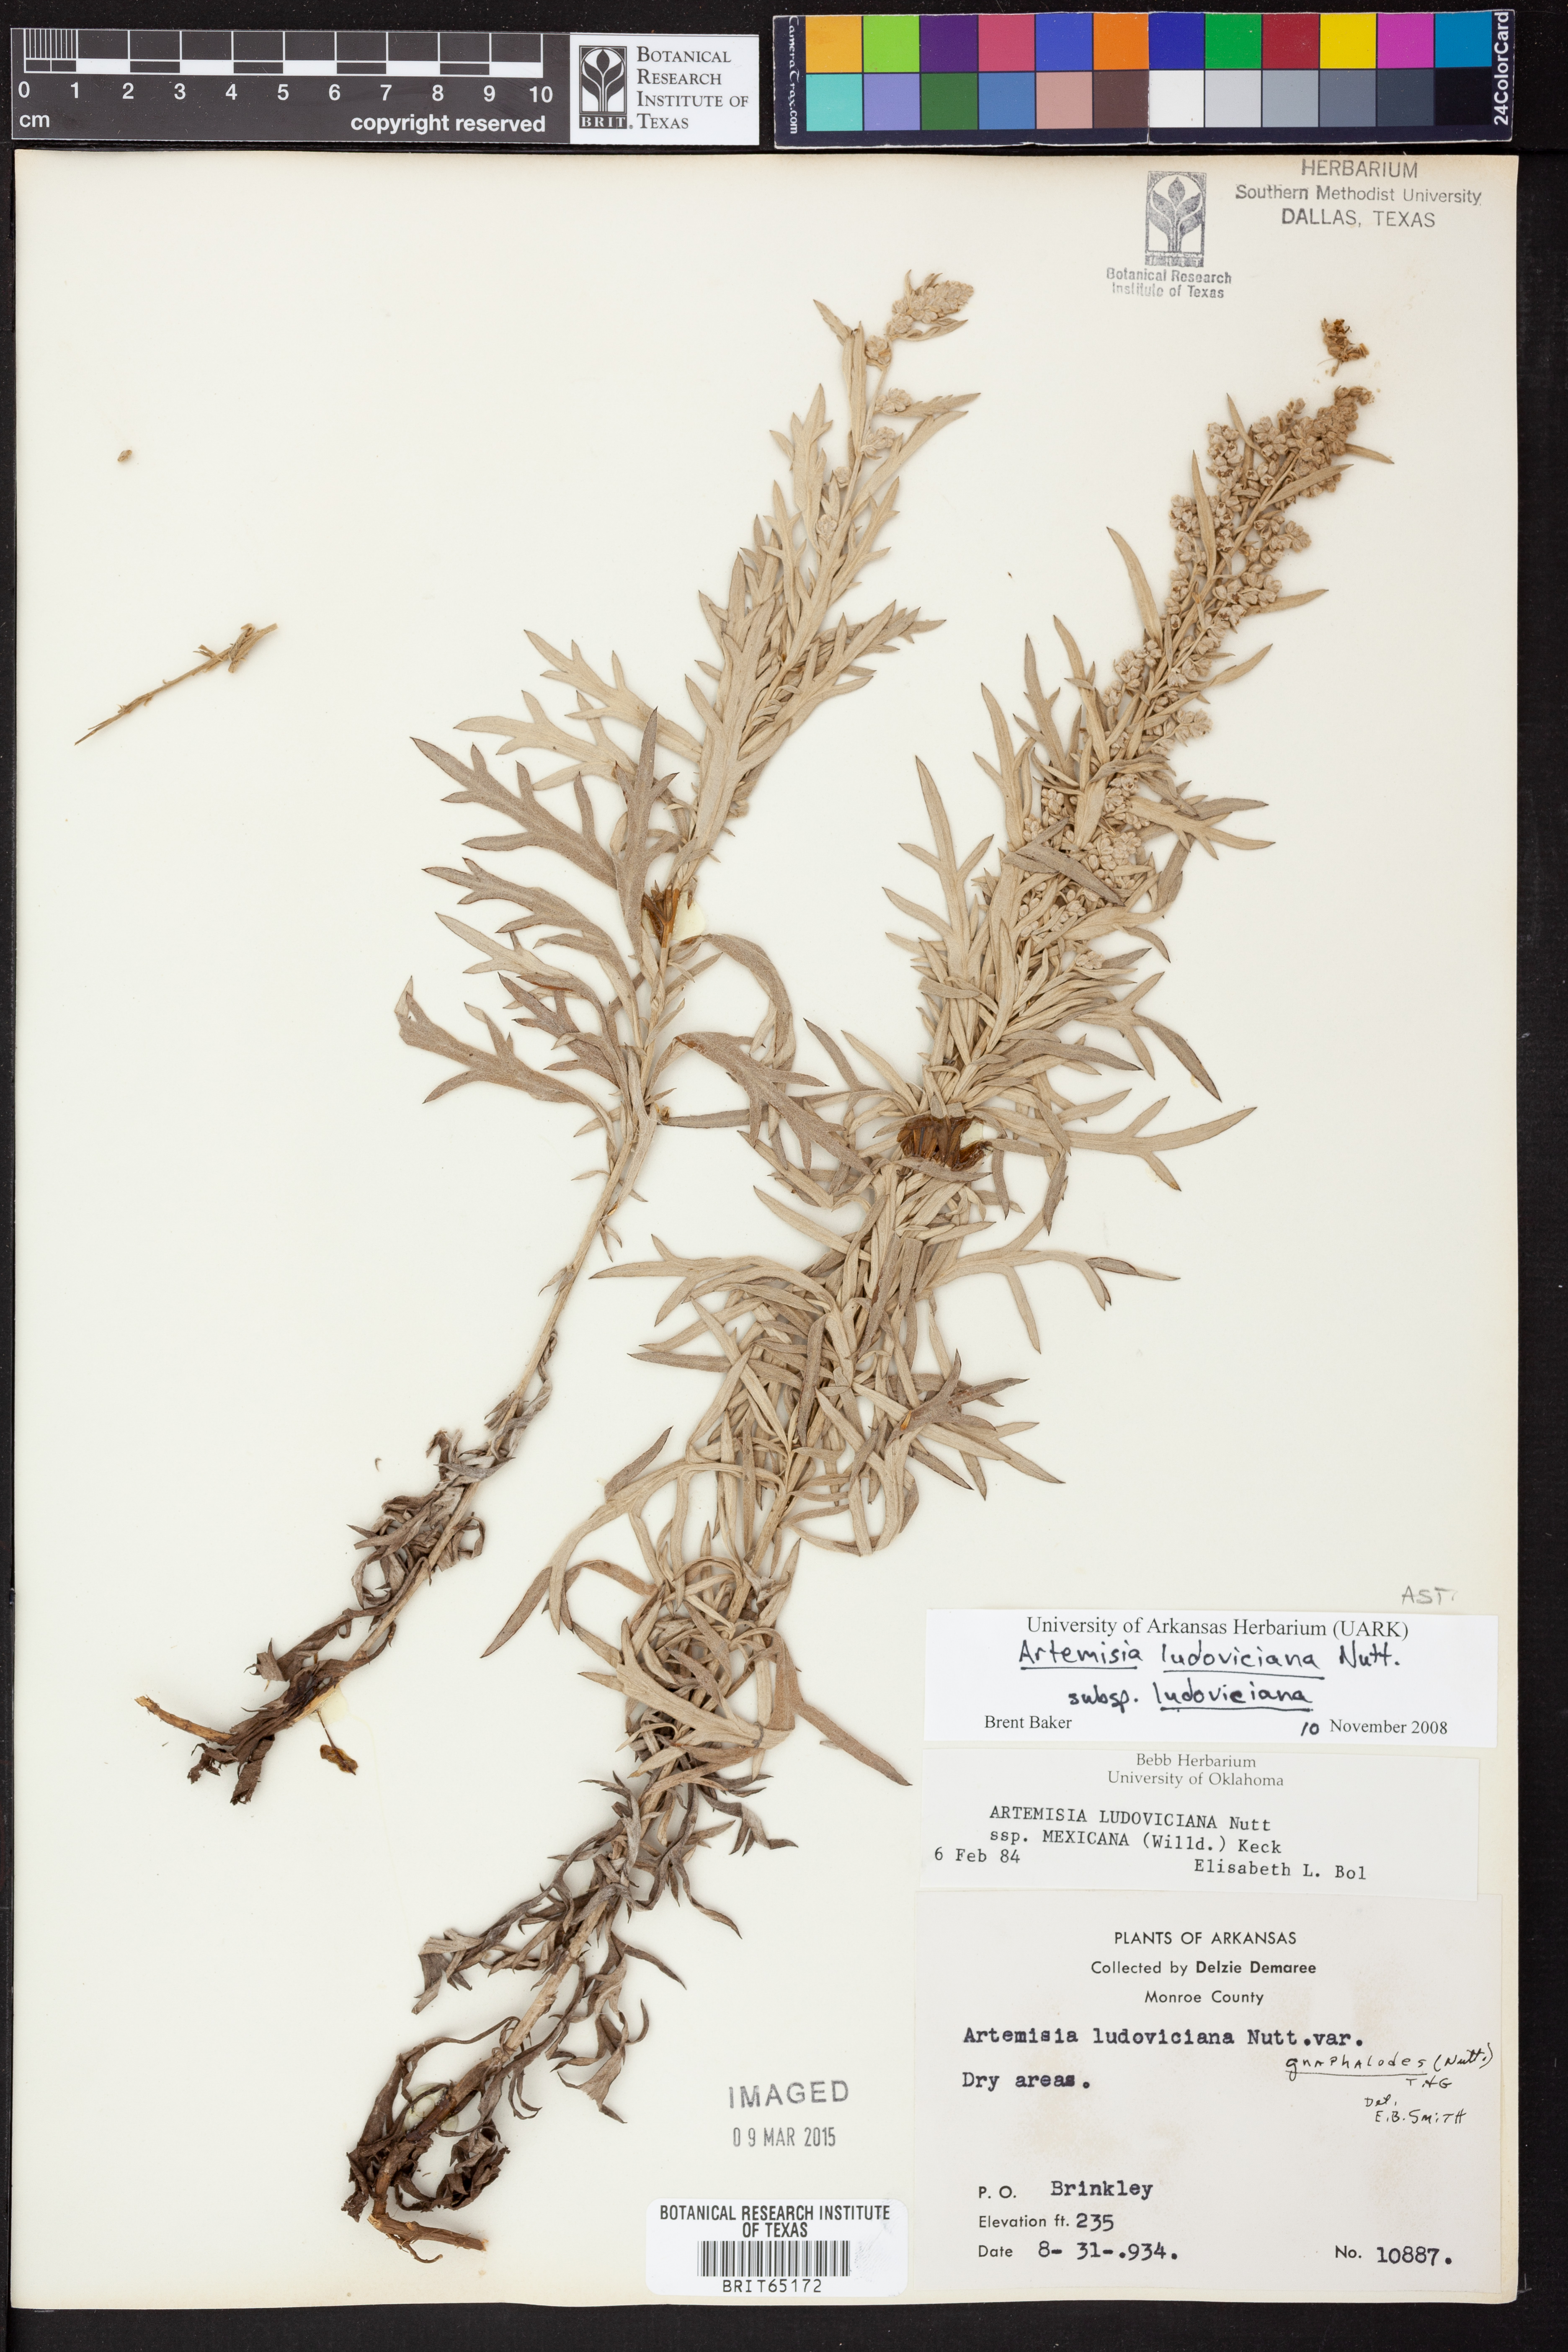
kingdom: Plantae
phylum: Tracheophyta
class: Magnoliopsida
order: Asterales
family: Asteraceae
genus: Artemisia
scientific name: Artemisia ludoviciana
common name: Western mugwort
